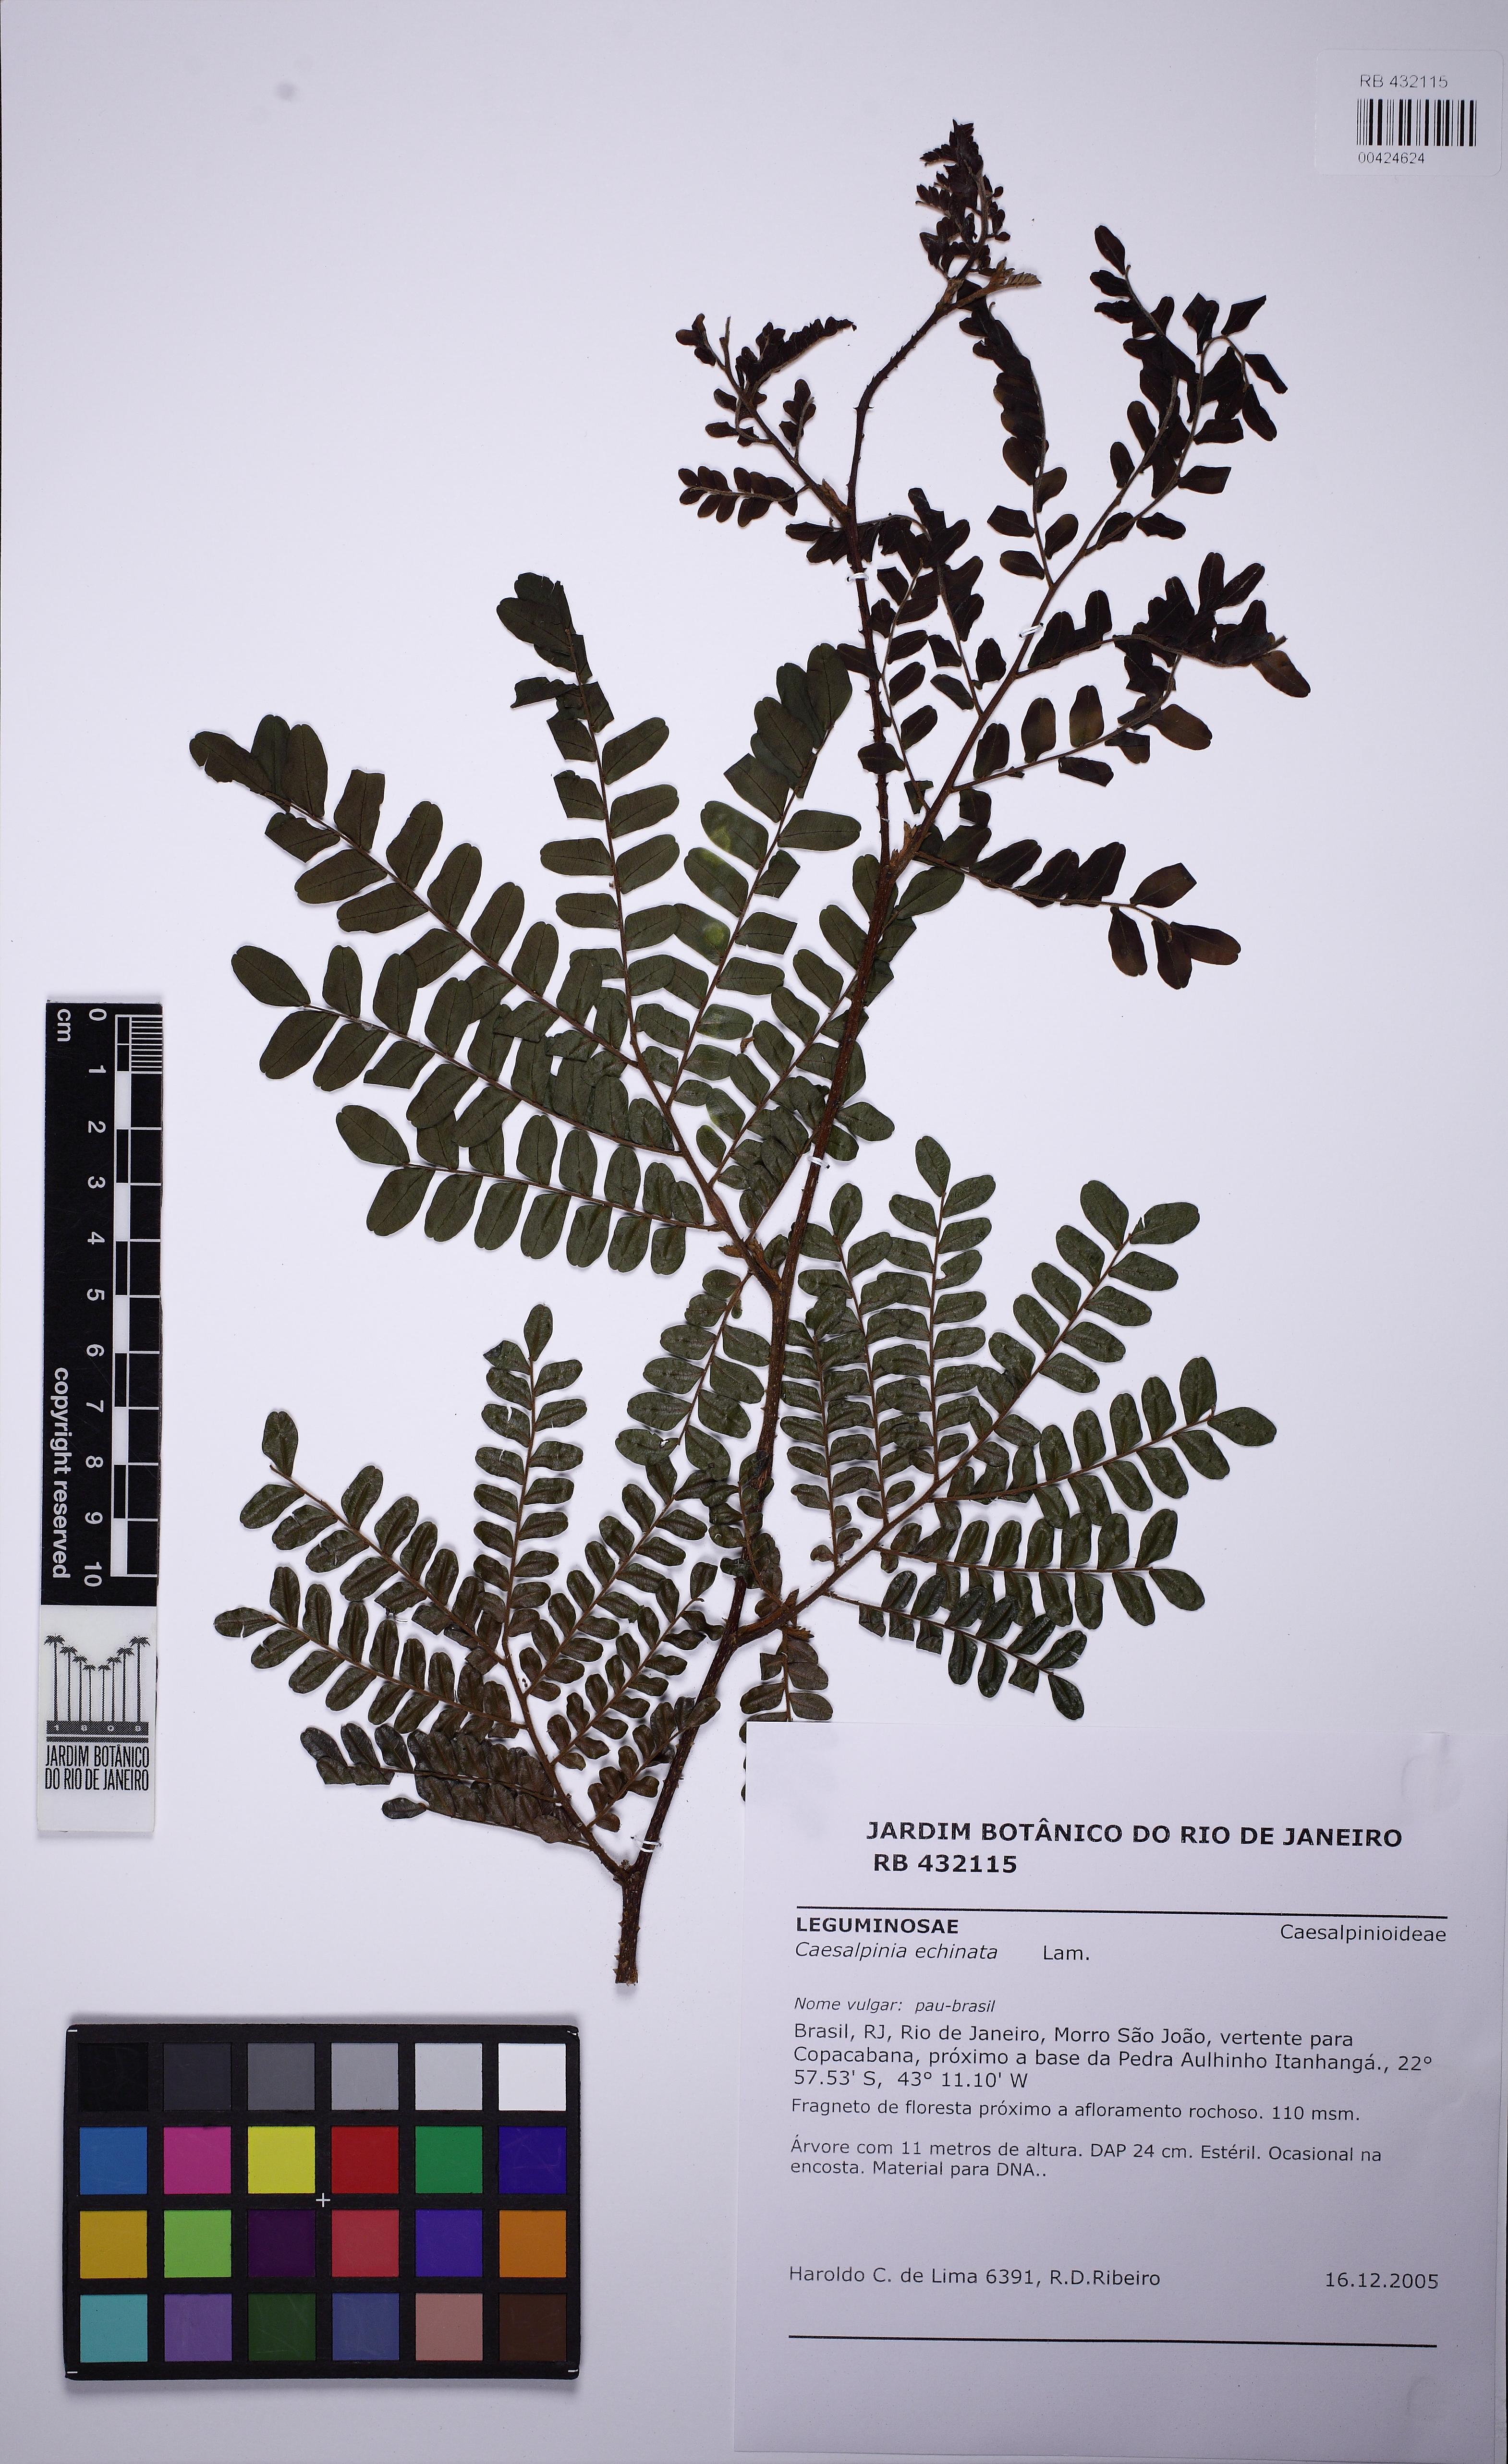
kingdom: Plantae
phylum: Tracheophyta
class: Magnoliopsida
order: Fabales
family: Fabaceae
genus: Paubrasilia
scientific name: Paubrasilia echinata
